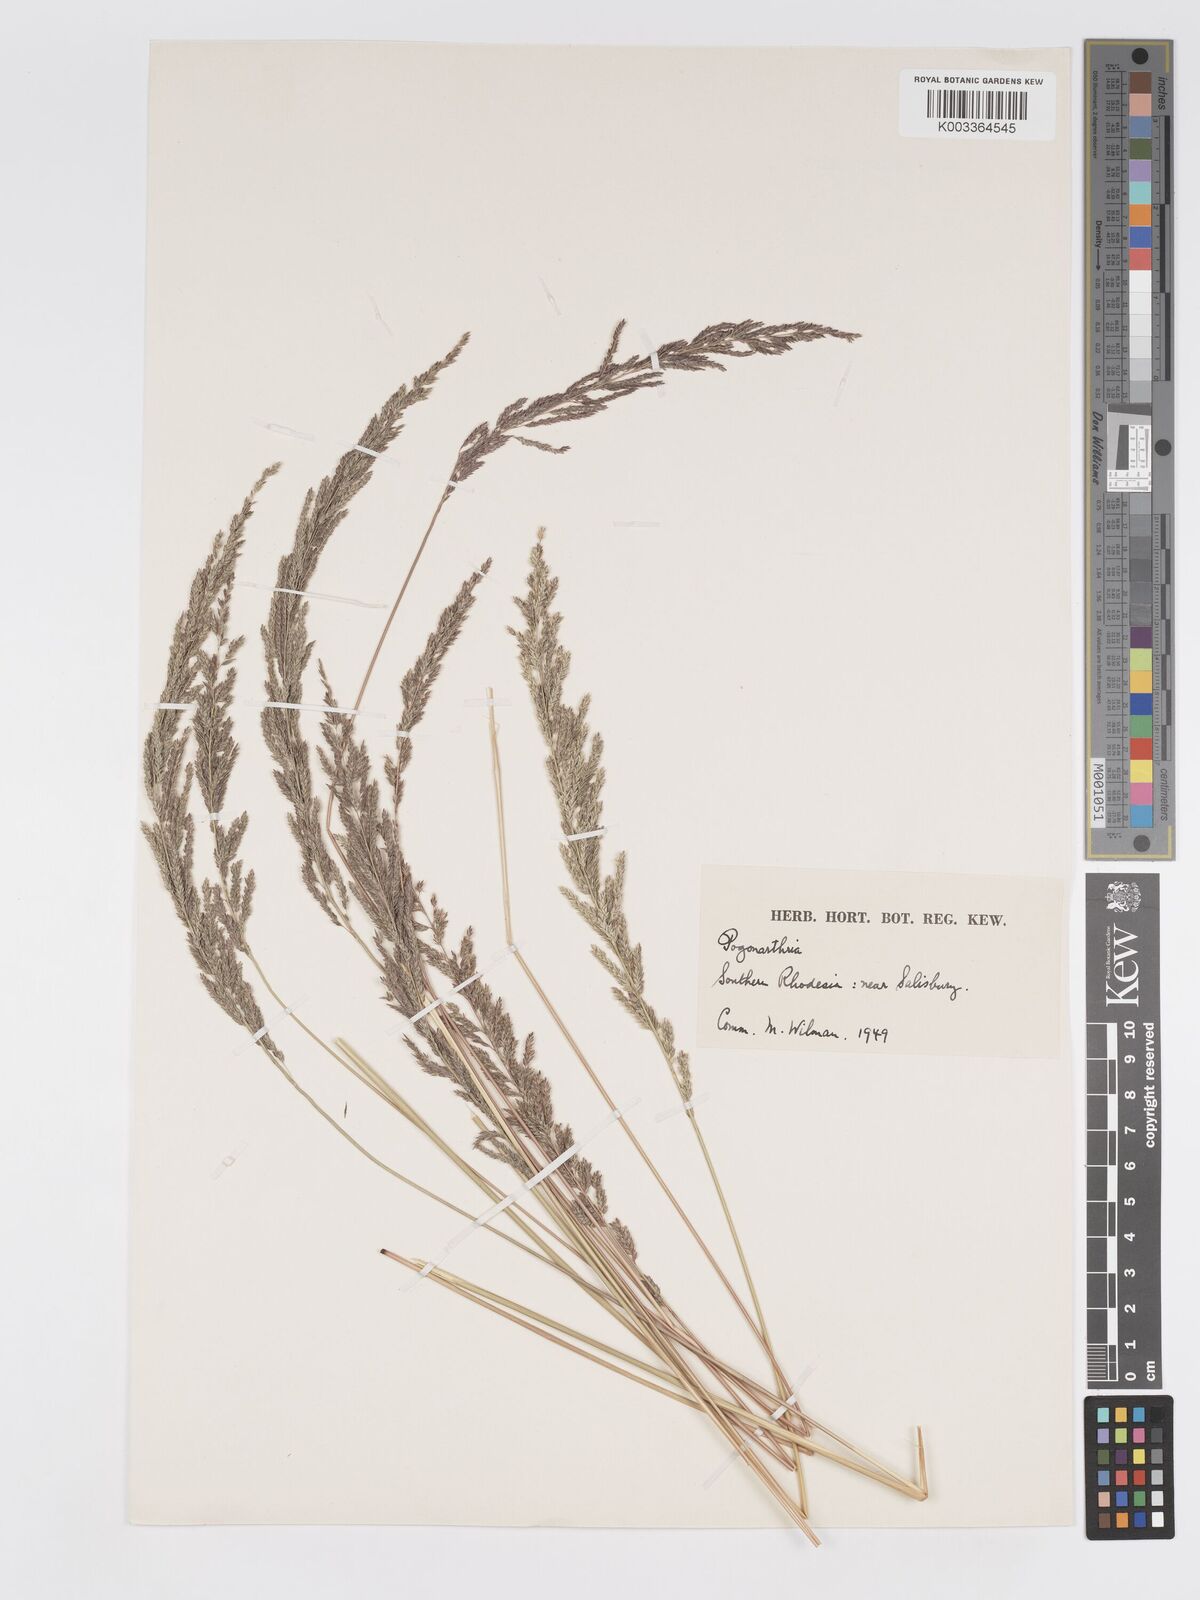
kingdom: Plantae
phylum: Tracheophyta
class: Liliopsida
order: Poales
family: Poaceae
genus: Eragrostis
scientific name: Eragrostis brainii
